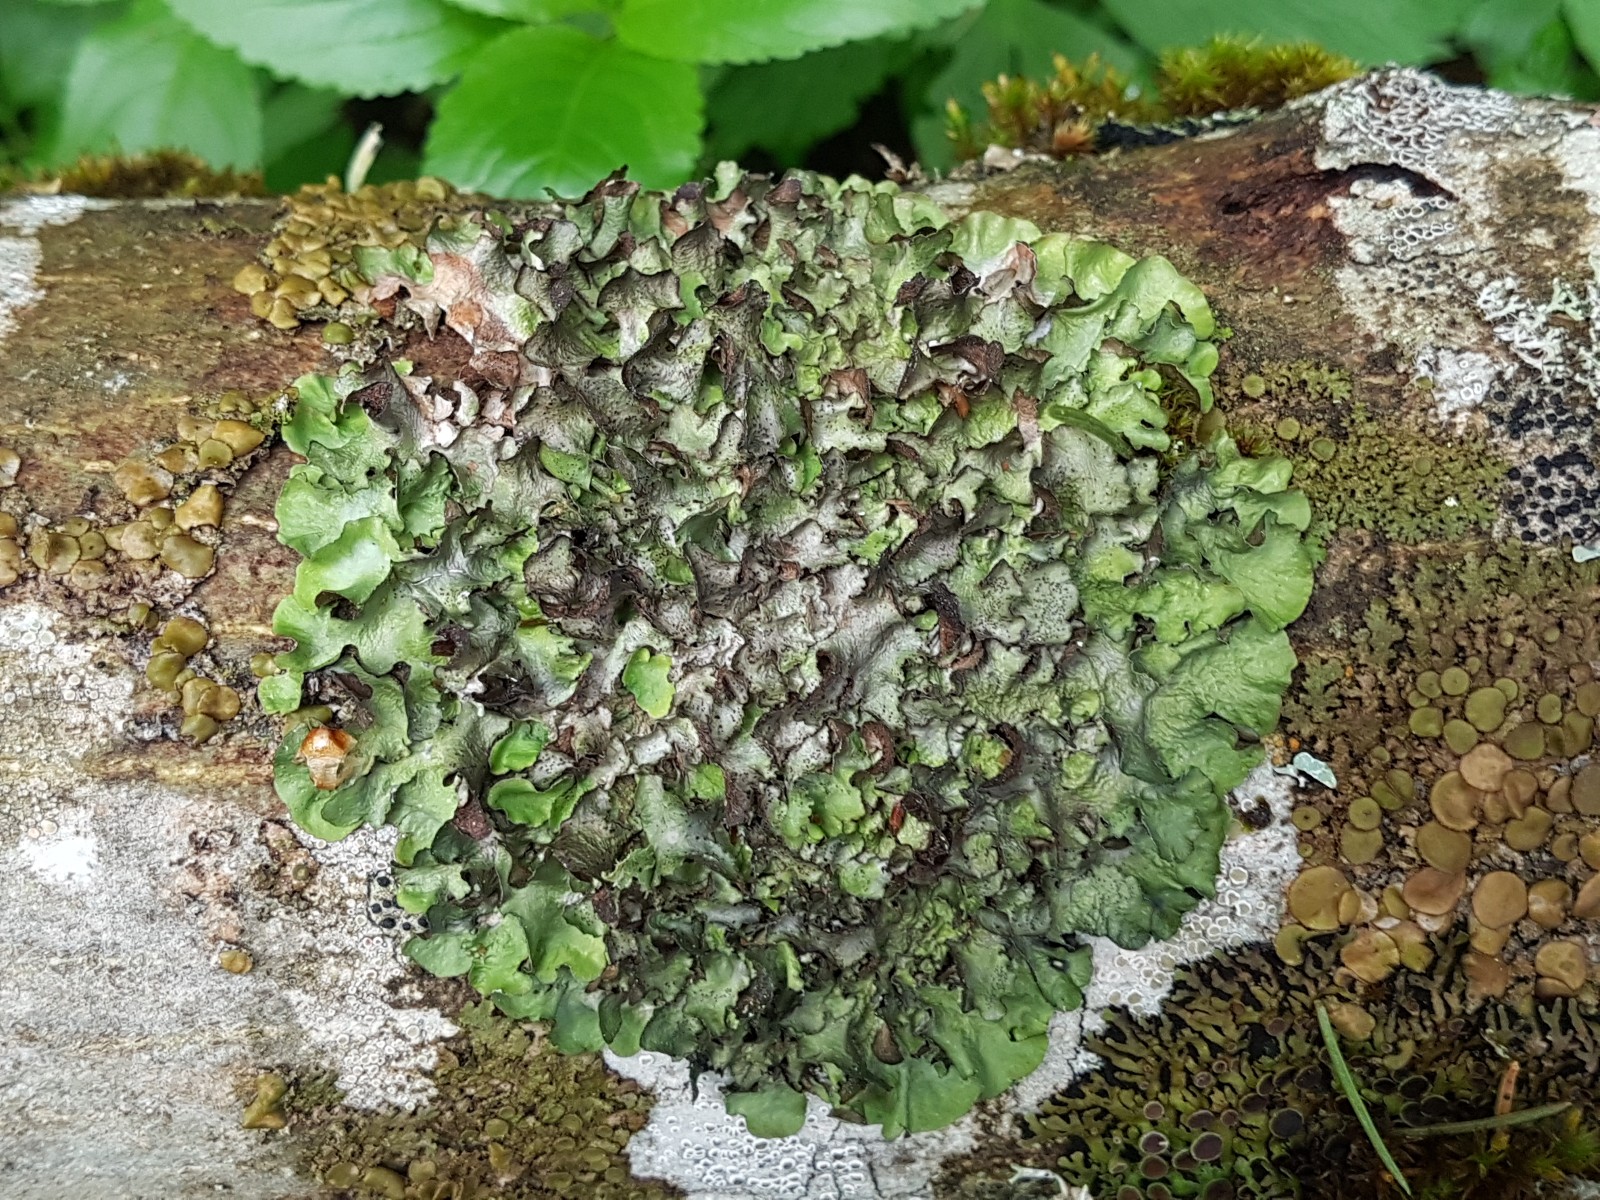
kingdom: Fungi
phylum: Ascomycota
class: Lecanoromycetes
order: Lecanorales
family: Parmeliaceae
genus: Pleurosticta
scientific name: Pleurosticta acetabulum
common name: stor skållav
